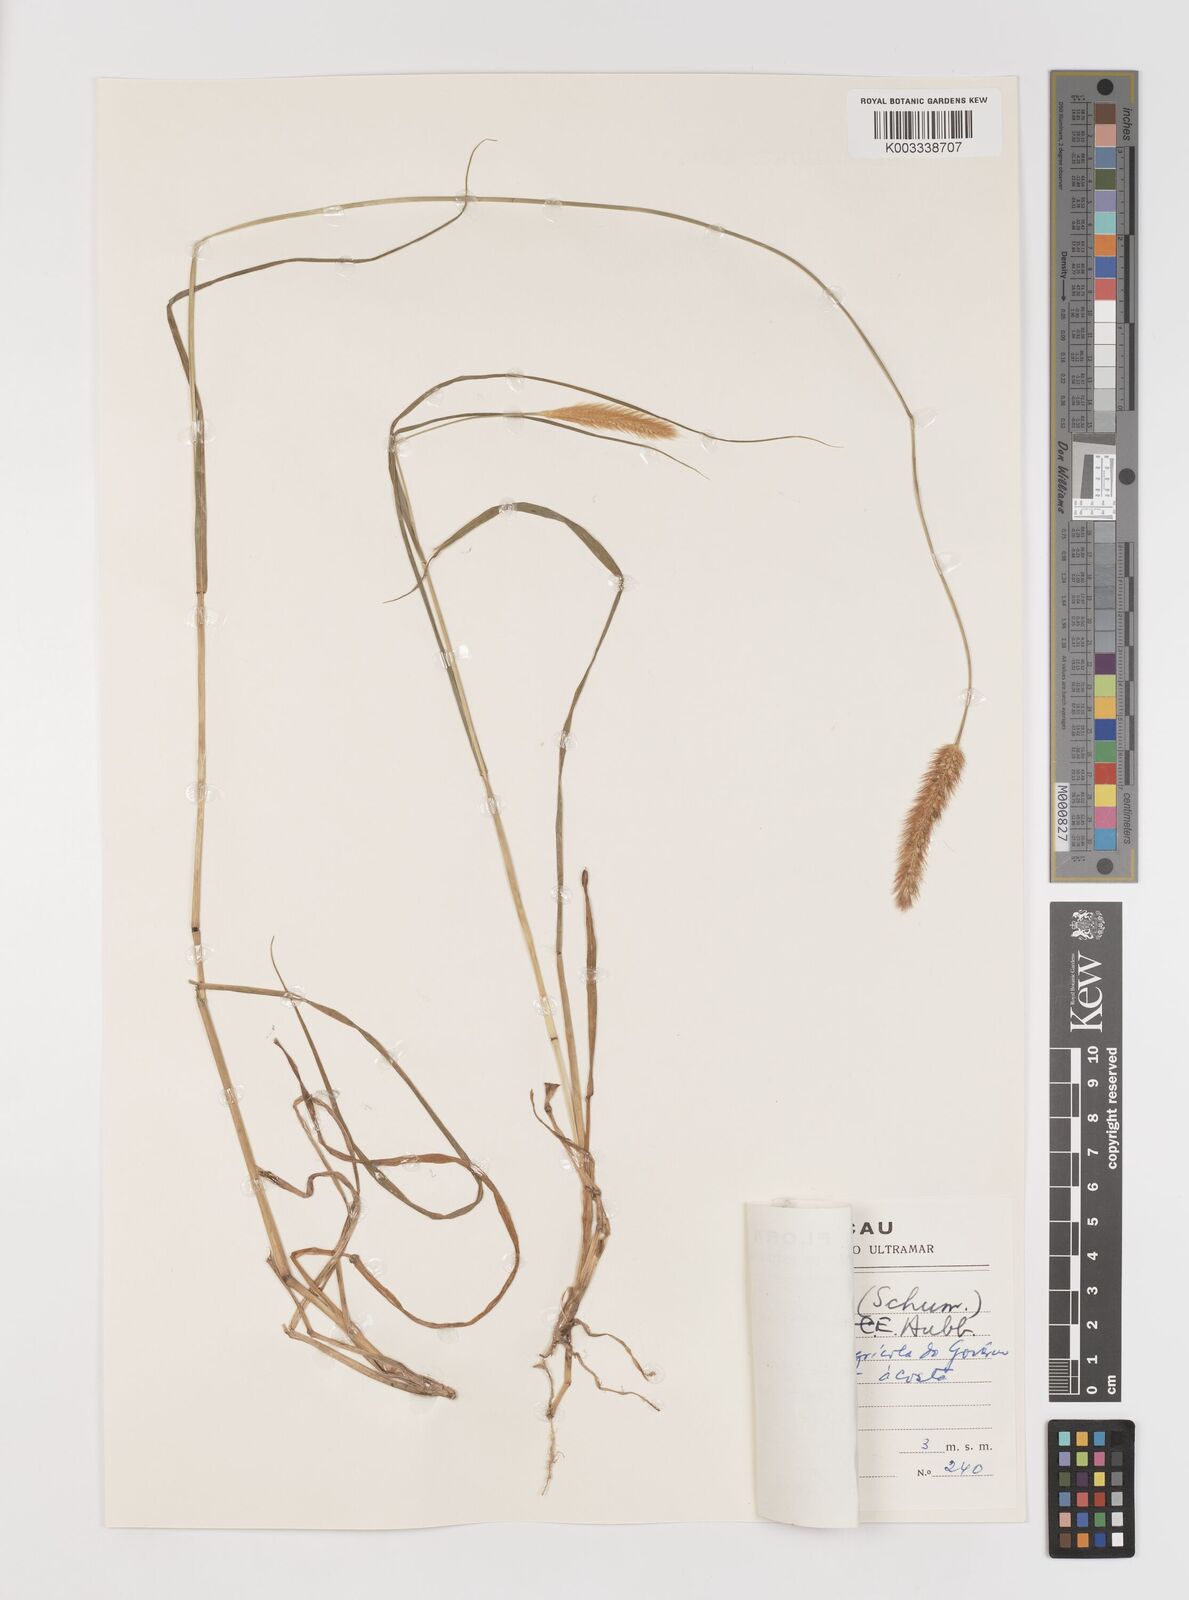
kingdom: Plantae
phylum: Tracheophyta
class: Liliopsida
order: Poales
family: Poaceae
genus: Setaria
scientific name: Setaria parviflora
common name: Knotroot bristle-grass
